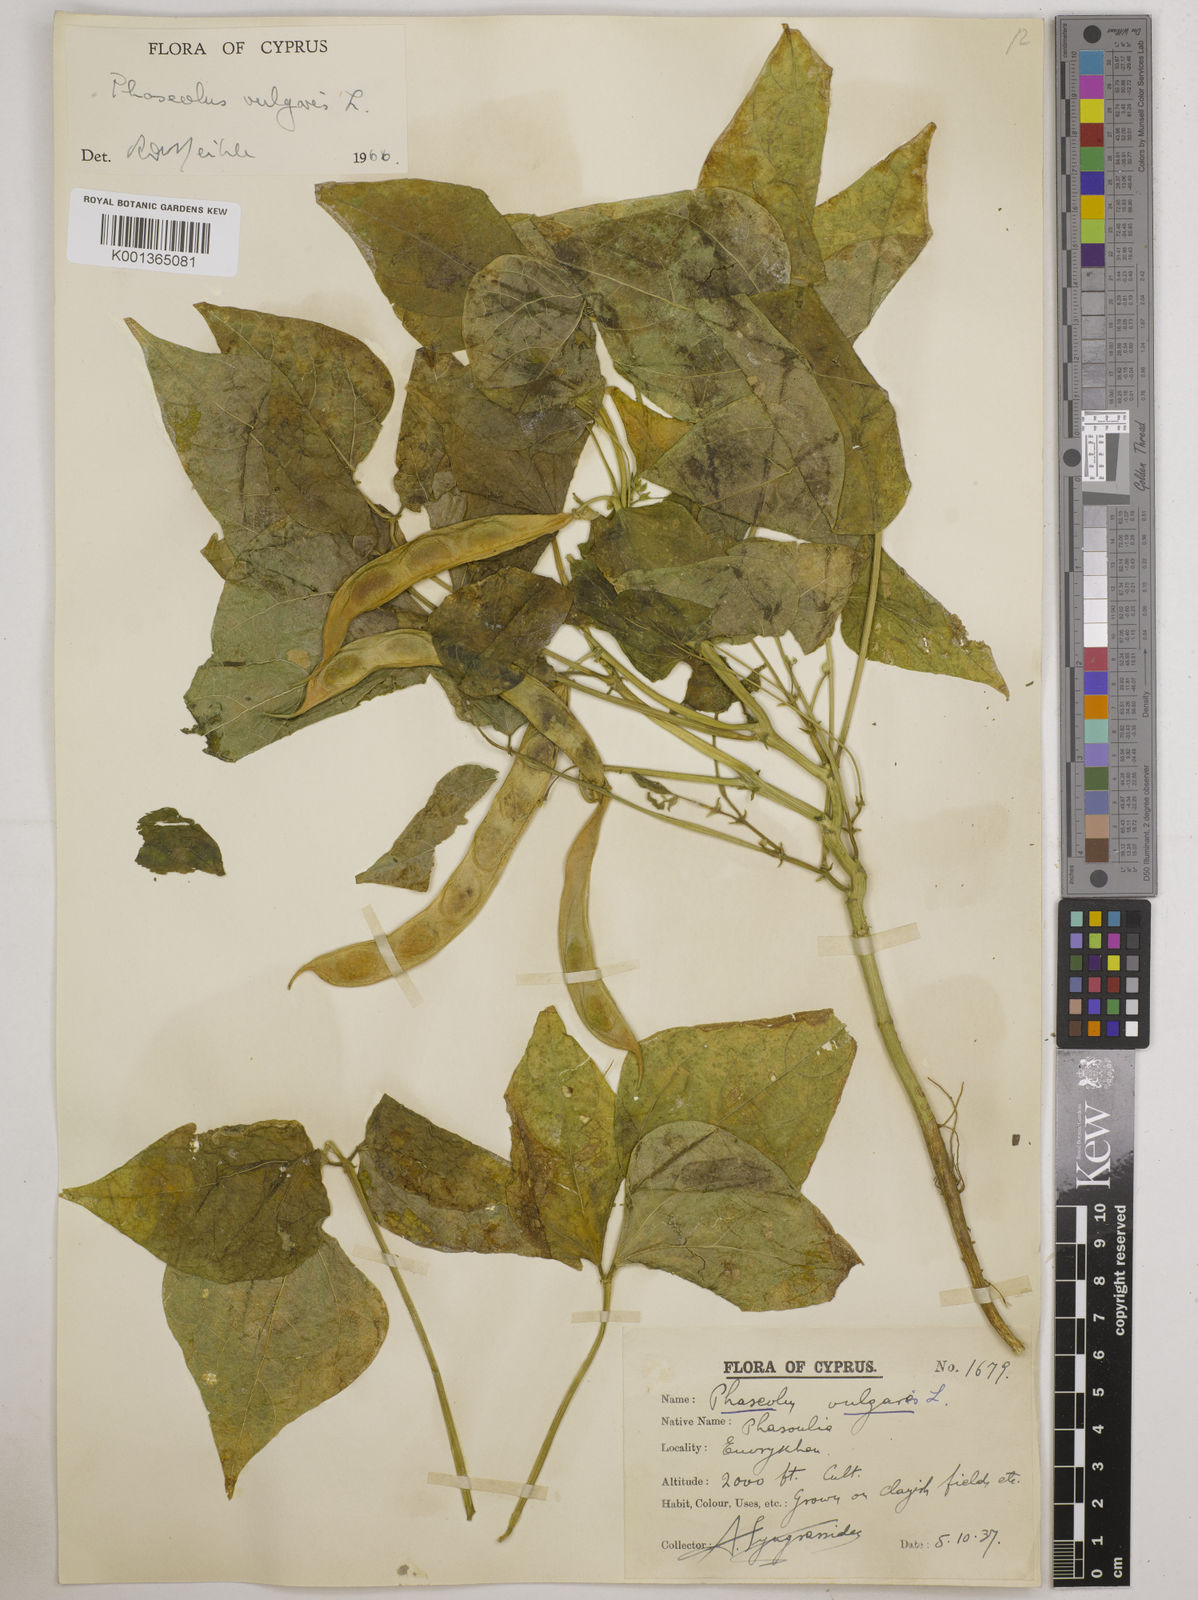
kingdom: Plantae
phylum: Tracheophyta
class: Magnoliopsida
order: Fabales
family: Fabaceae
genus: Phaseolus
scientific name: Phaseolus vulgaris
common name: Bean
